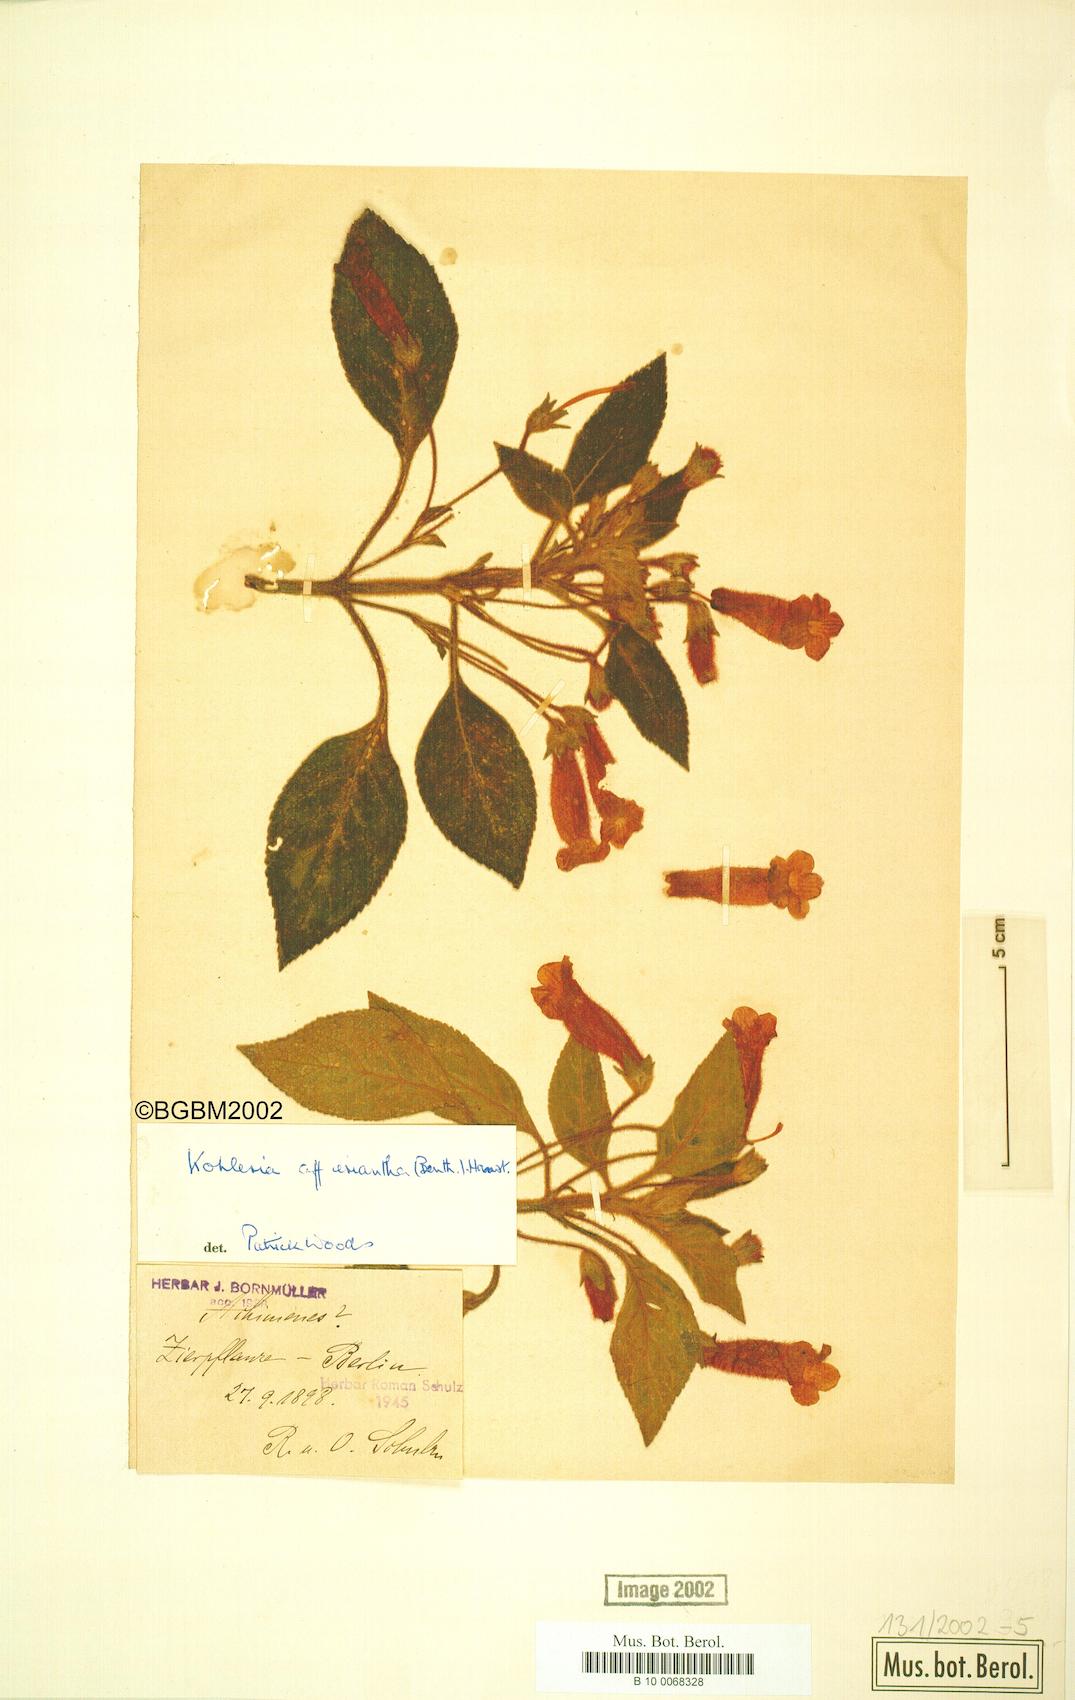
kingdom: Plantae
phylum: Tracheophyta
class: Magnoliopsida
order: Lamiales
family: Gesneriaceae
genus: Kohleria
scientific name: Kohleria hirsuta
